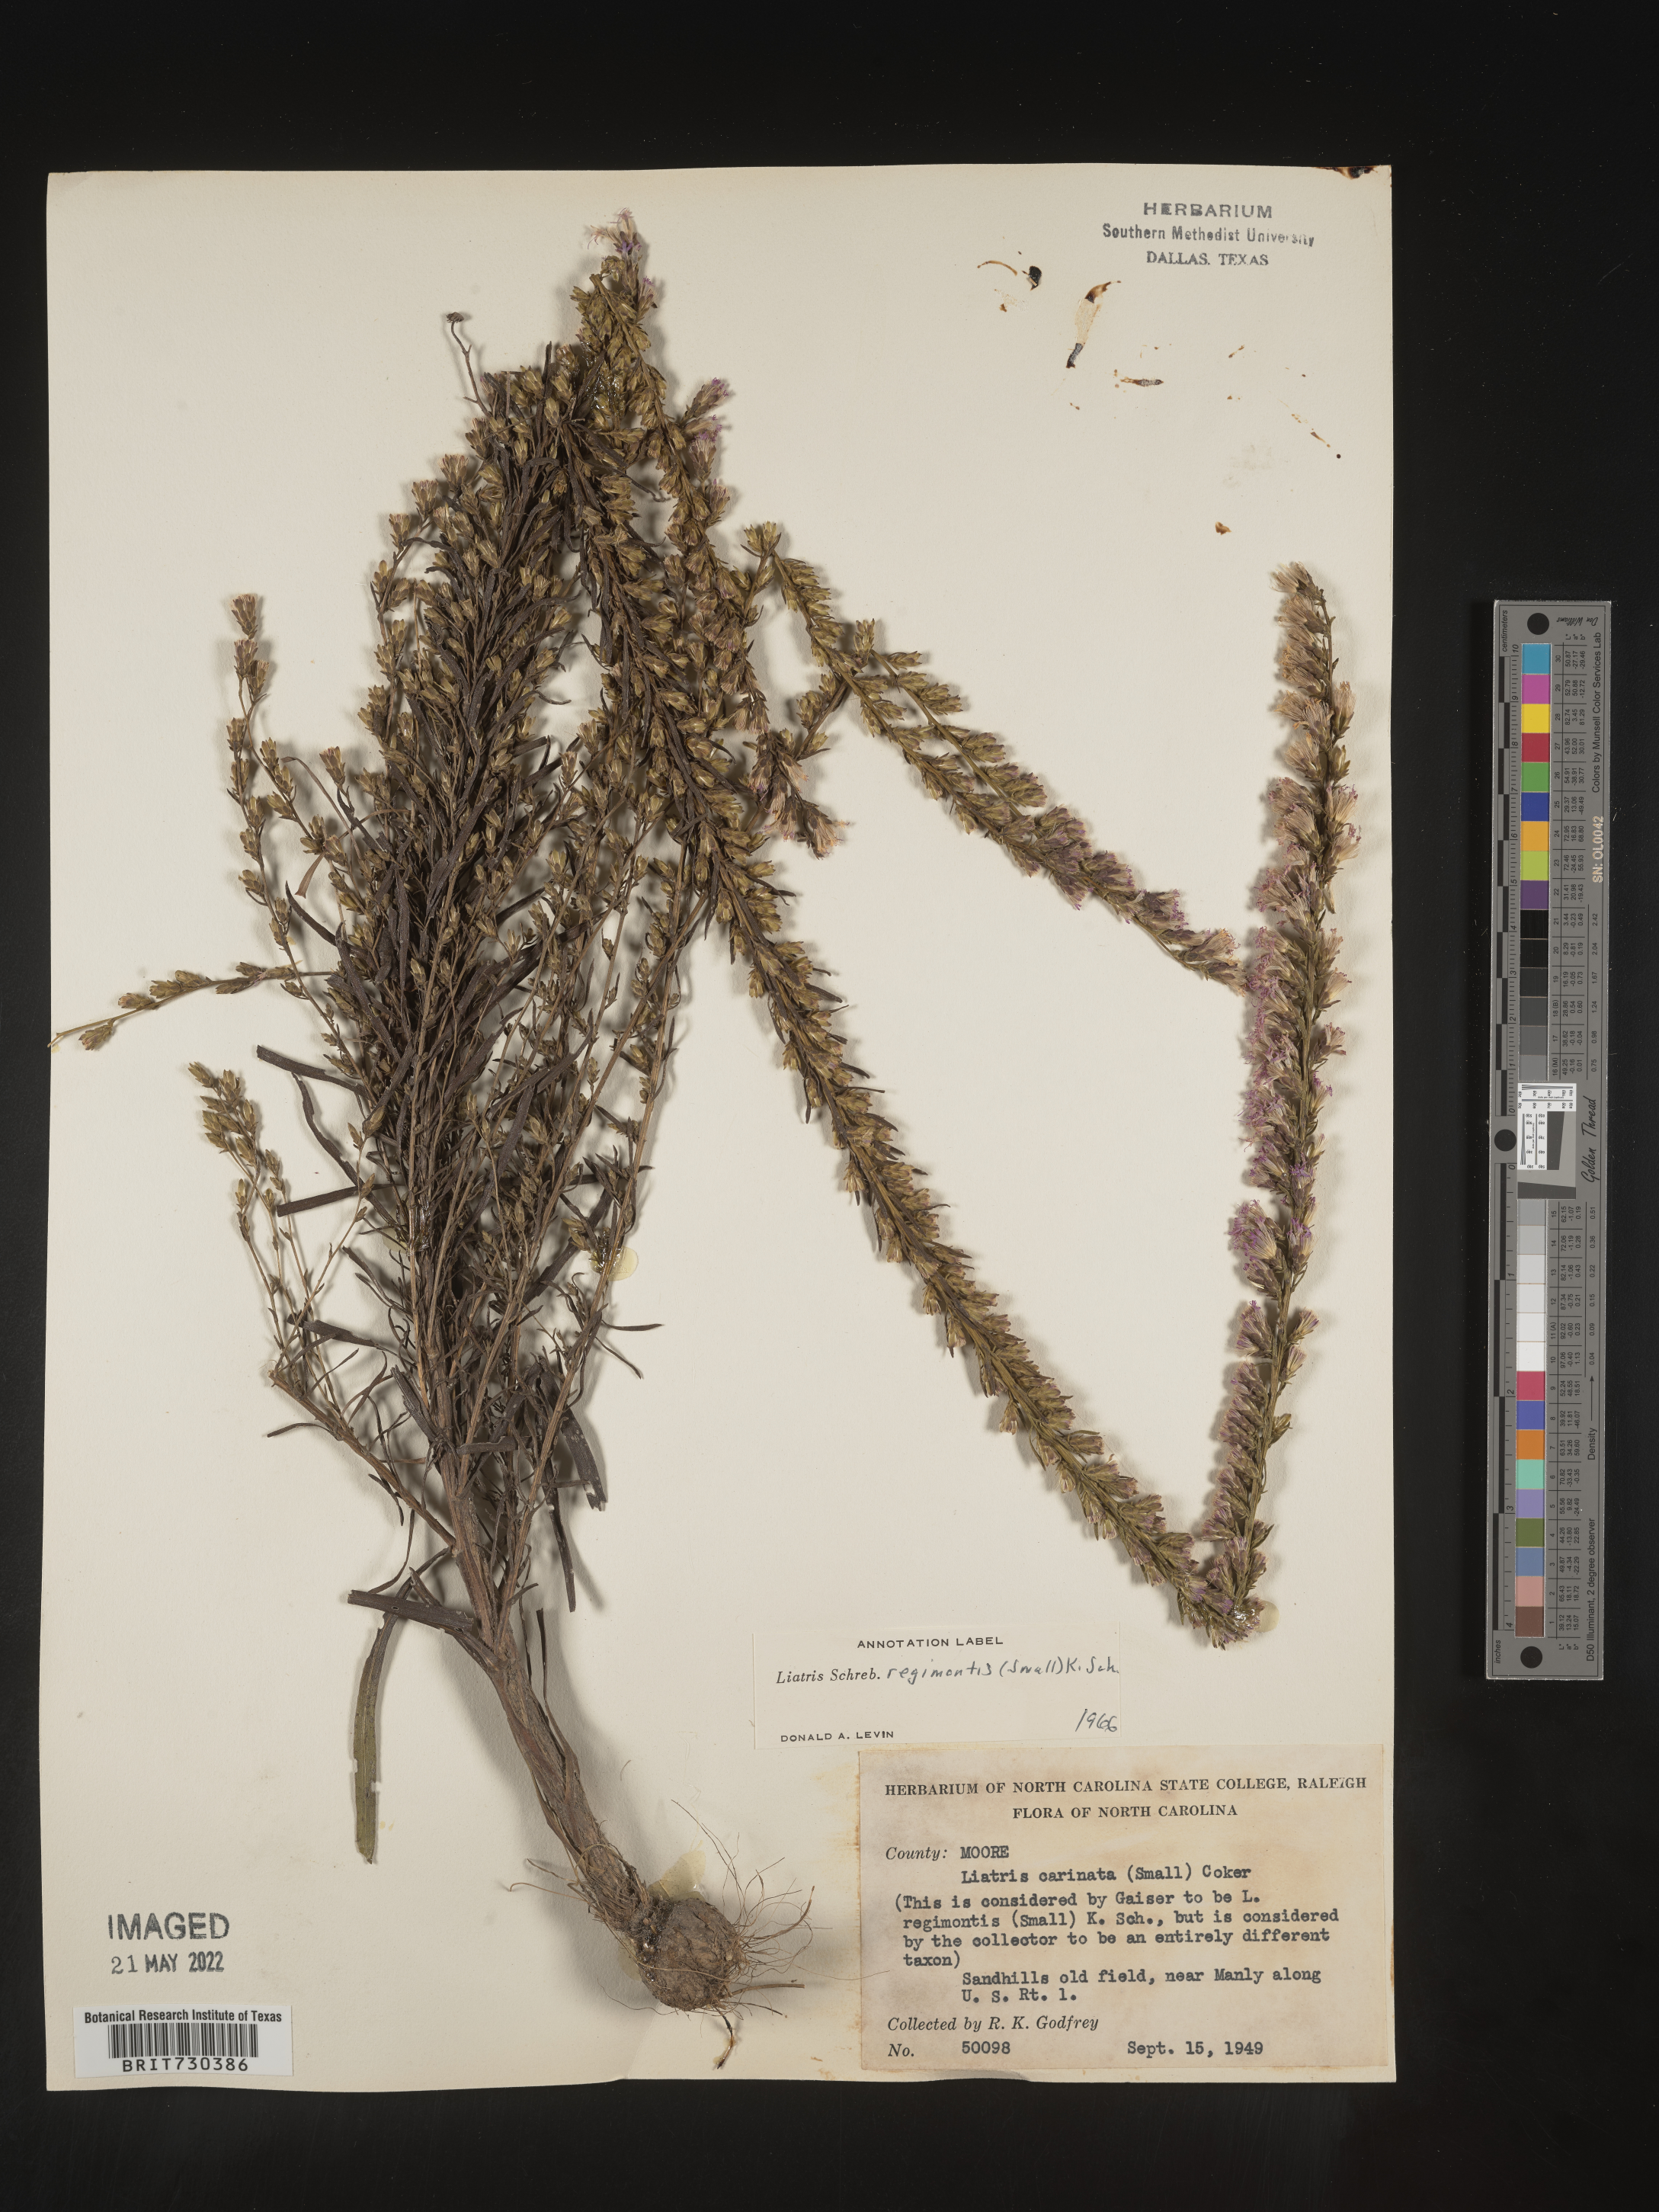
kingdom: Plantae
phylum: Tracheophyta
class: Magnoliopsida
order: Asterales
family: Asteraceae
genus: Liatris
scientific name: Liatris cokeri
